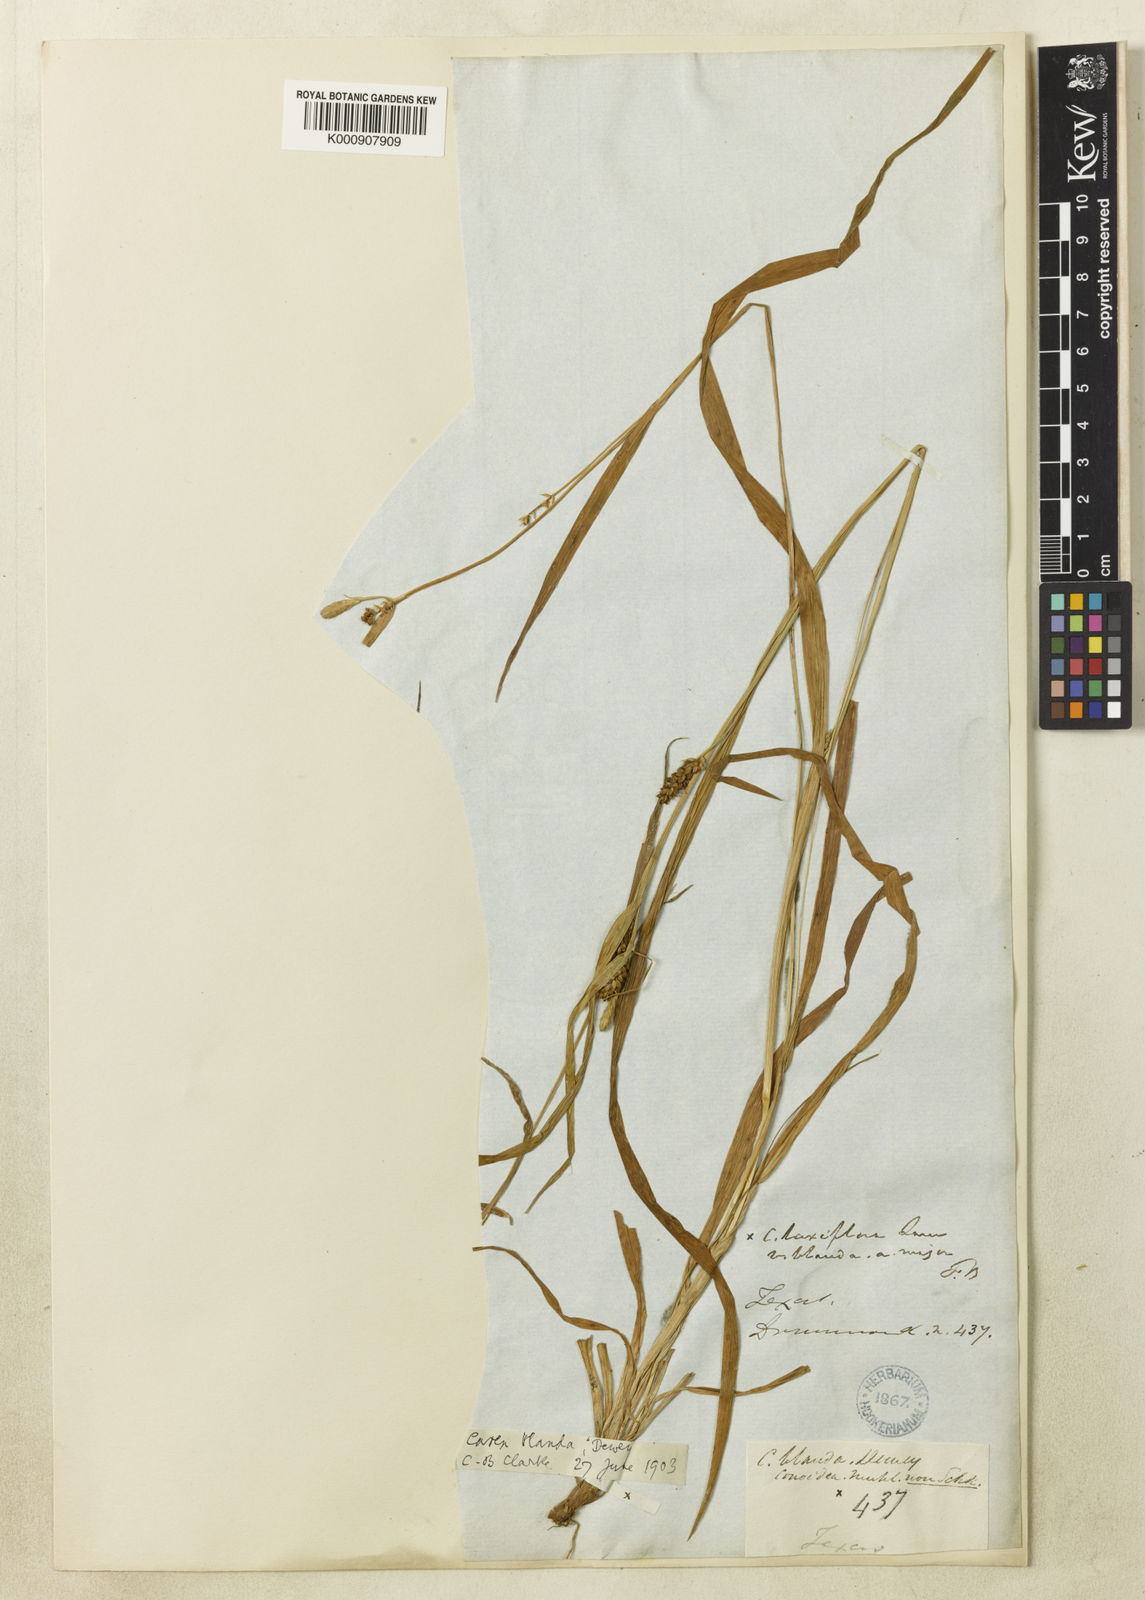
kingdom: Plantae
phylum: Tracheophyta
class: Liliopsida
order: Poales
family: Cyperaceae
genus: Carex
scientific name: Carex blanda
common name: Bland sedge
